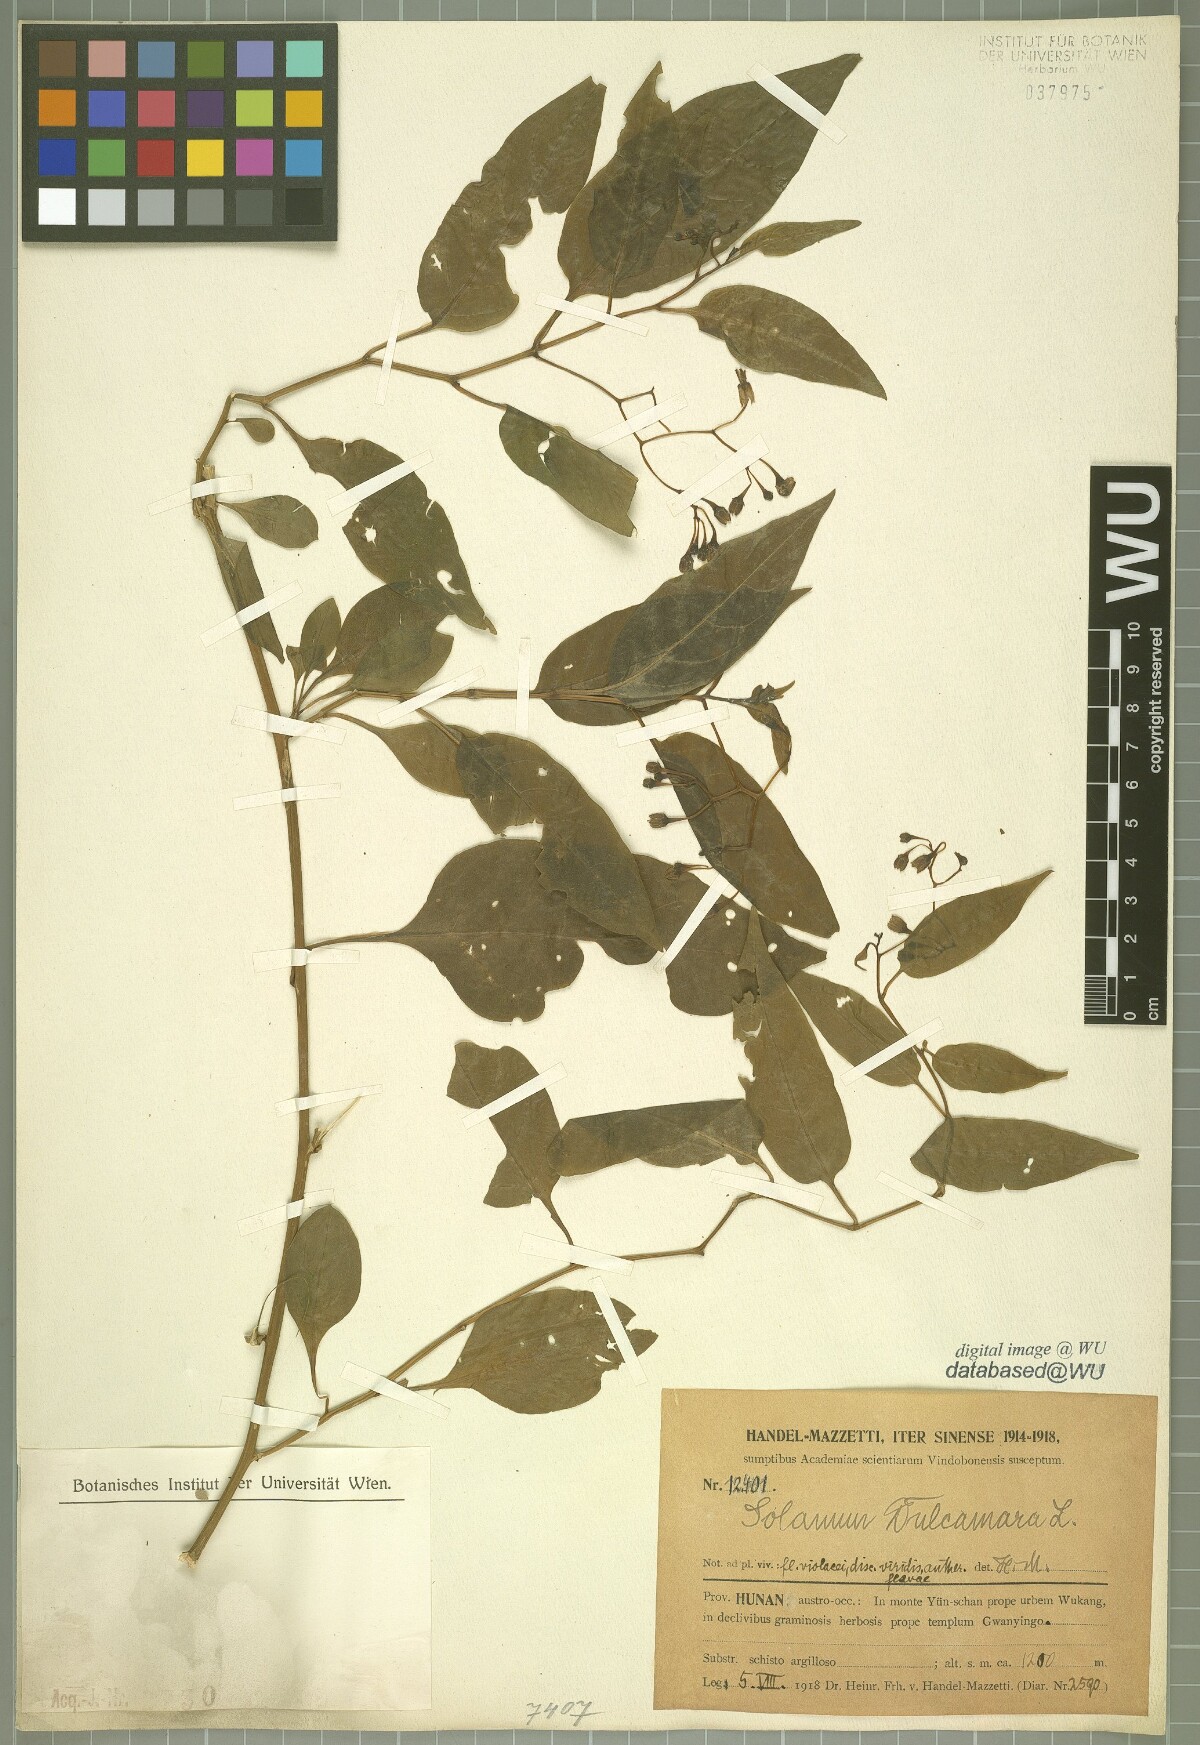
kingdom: Plantae
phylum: Tracheophyta
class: Magnoliopsida
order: Solanales
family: Solanaceae
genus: Solanum
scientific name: Solanum dulcamara
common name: Climbing nightshade
